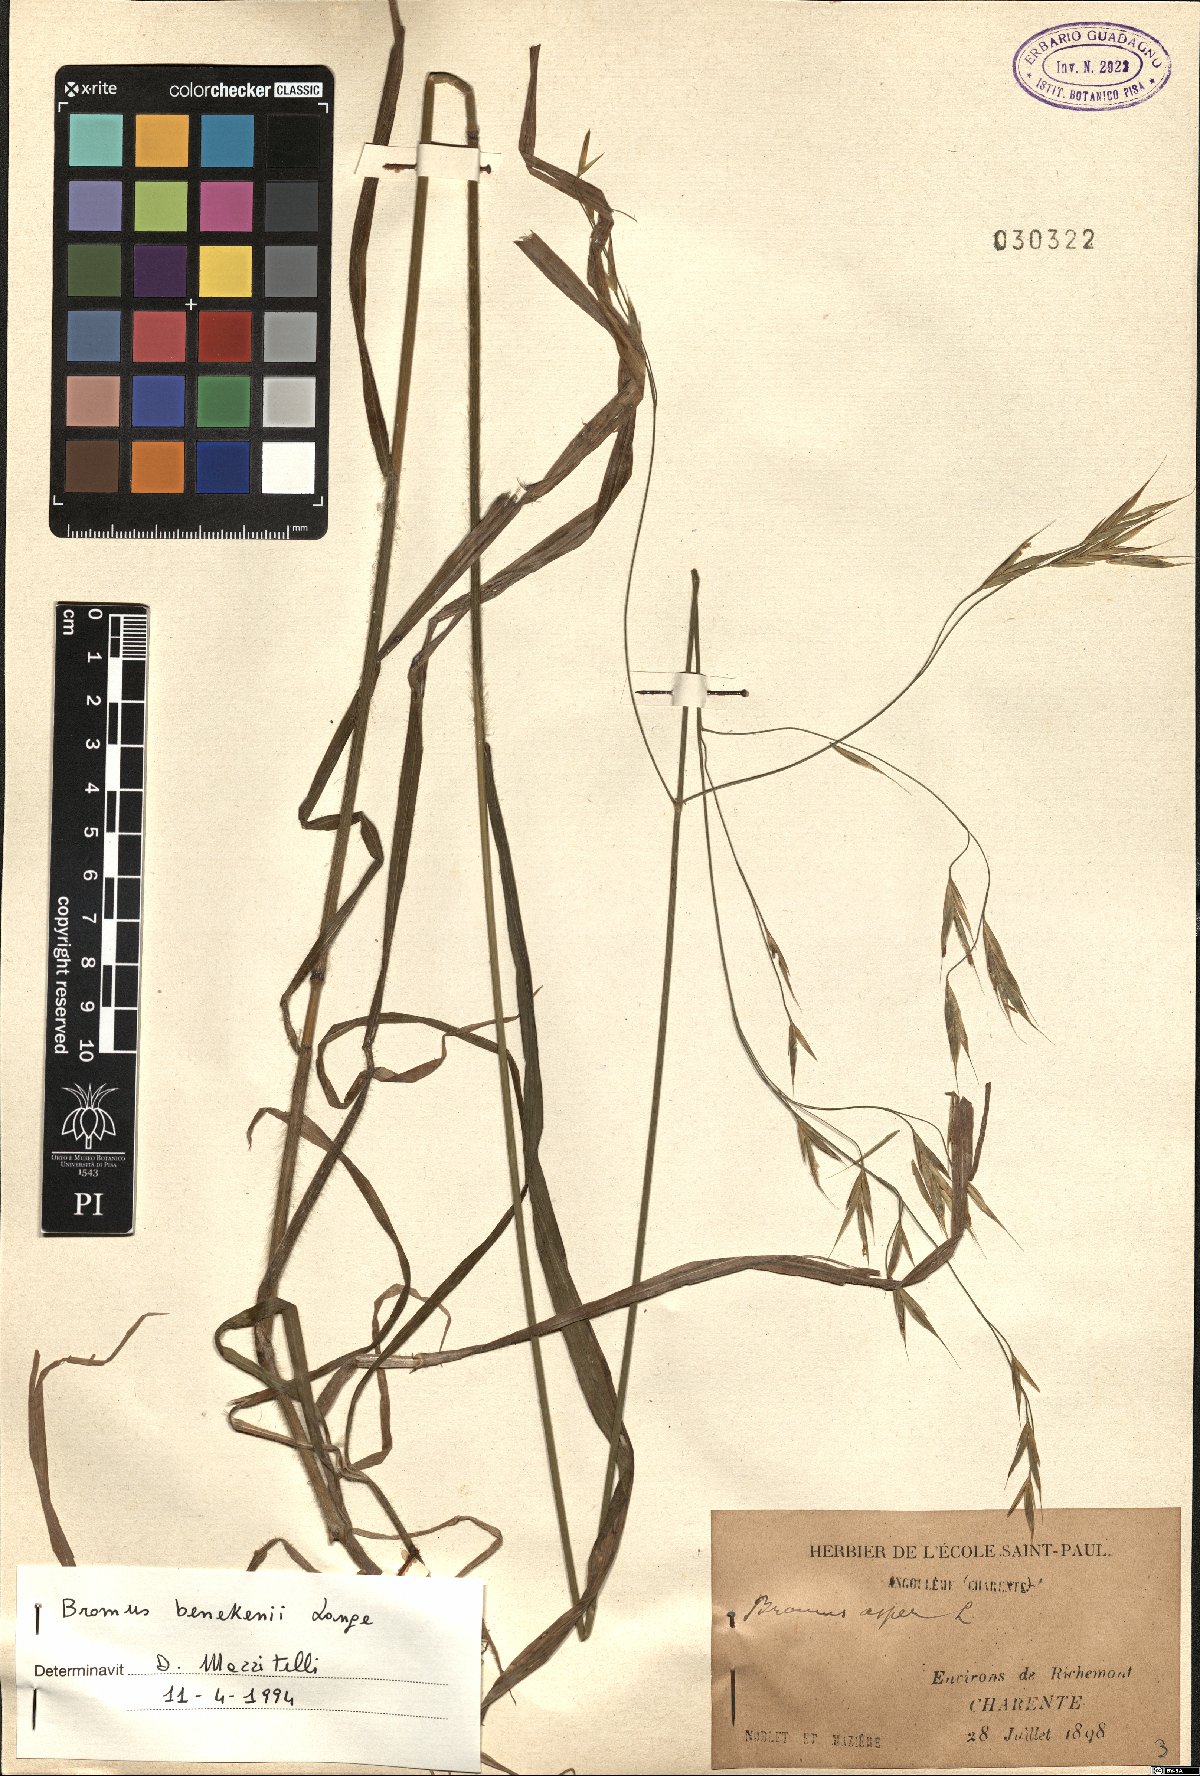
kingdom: Plantae
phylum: Tracheophyta
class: Liliopsida
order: Poales
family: Poaceae
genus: Bromus
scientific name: Bromus benekenii
